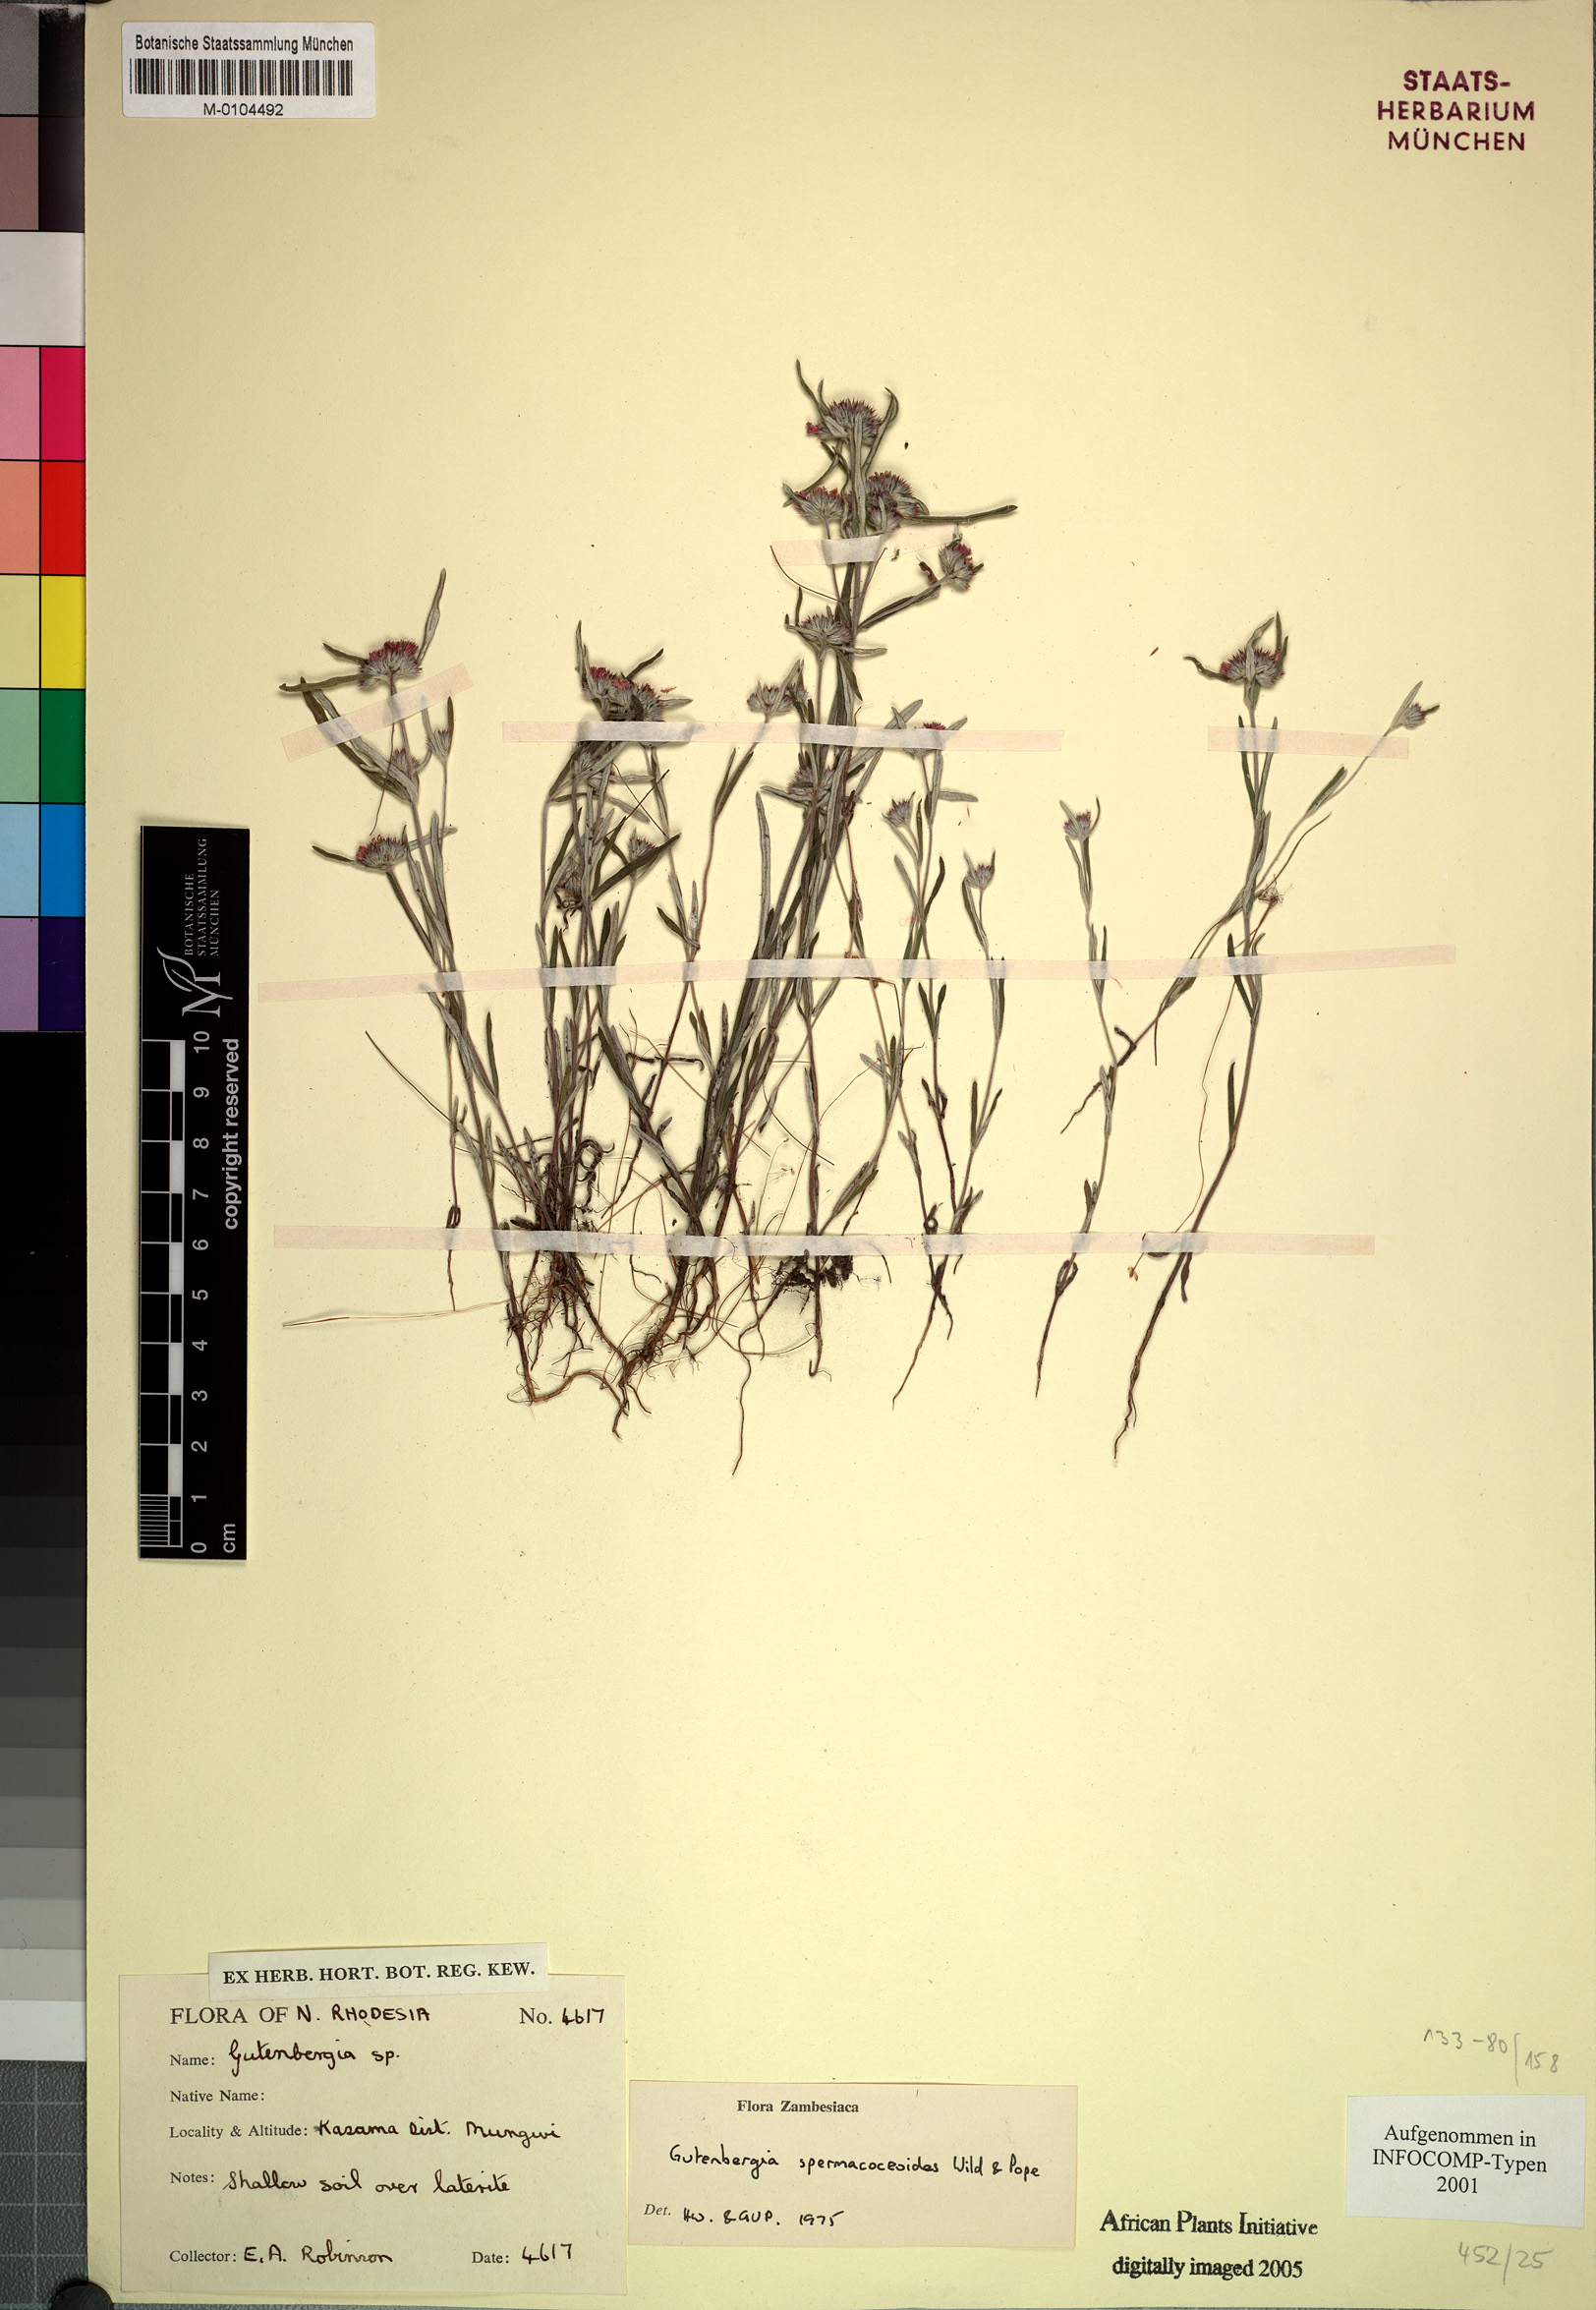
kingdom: Plantae
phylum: Tracheophyta
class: Magnoliopsida
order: Asterales
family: Asteraceae
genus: Gutenbergia
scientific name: Gutenbergia spermacoceoides
